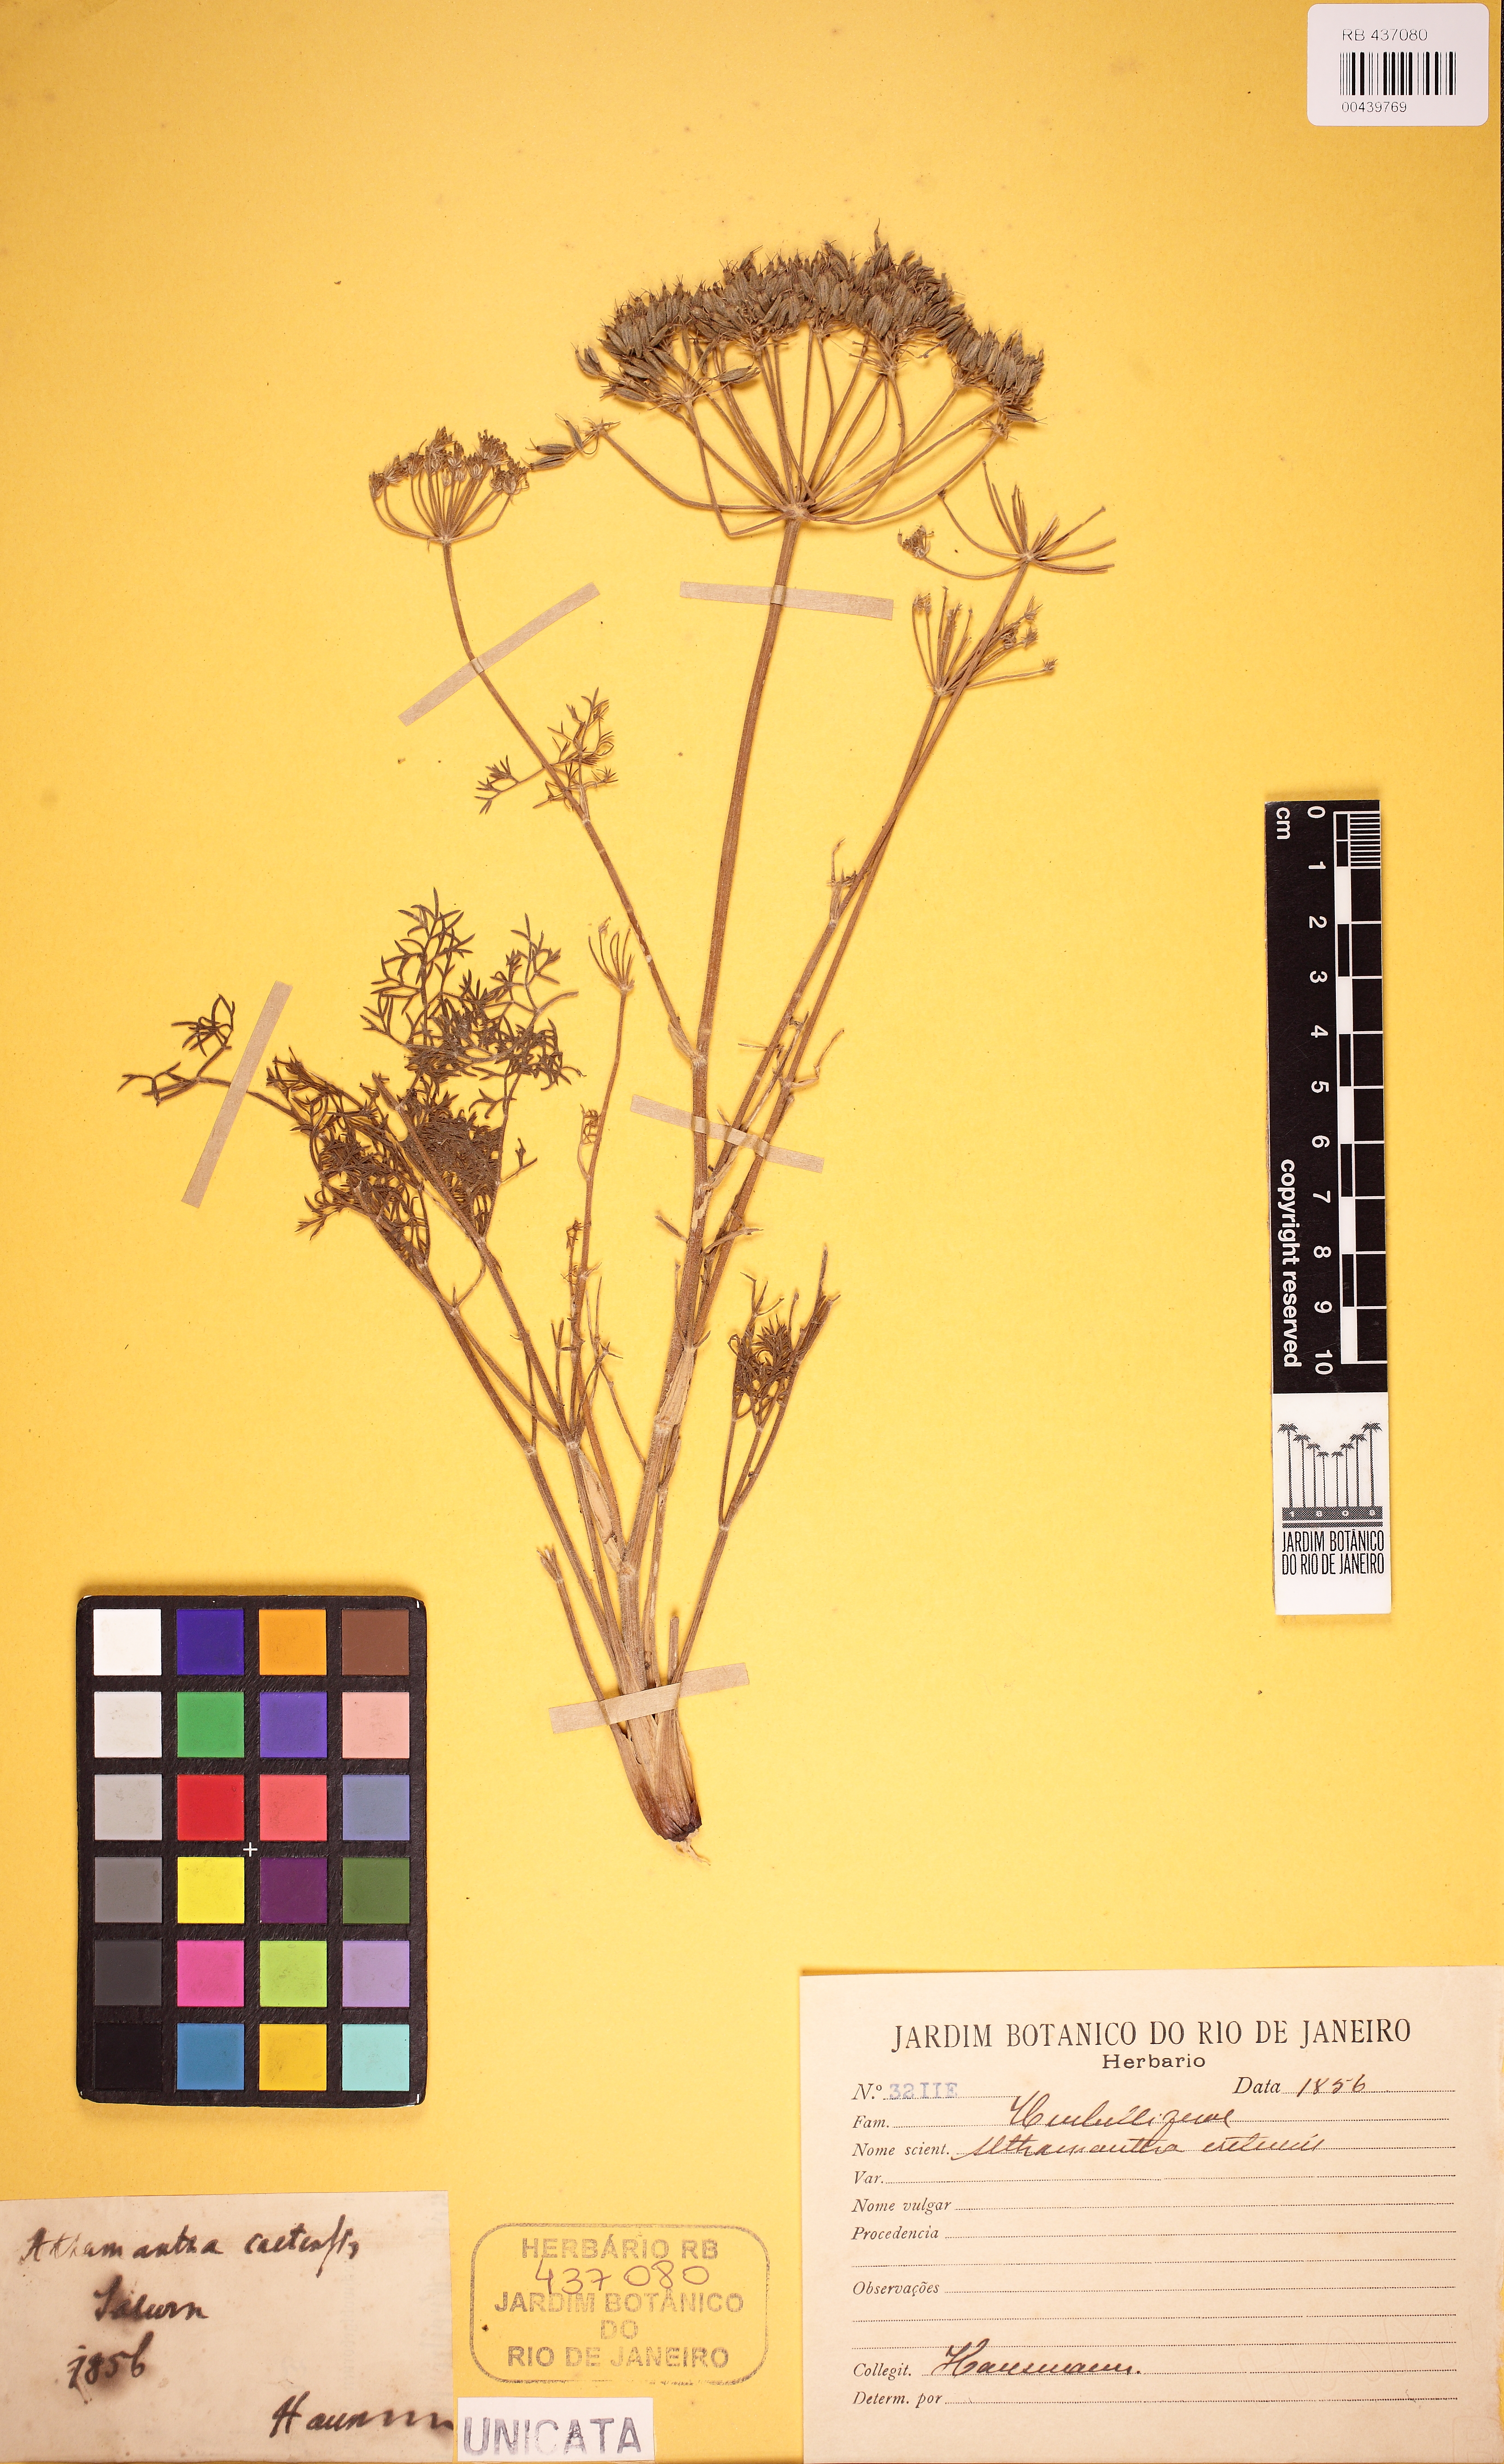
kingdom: Plantae
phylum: Tracheophyta
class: Magnoliopsida
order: Apiales
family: Apiaceae
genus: Athamanta
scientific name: Athamanta cretensis
